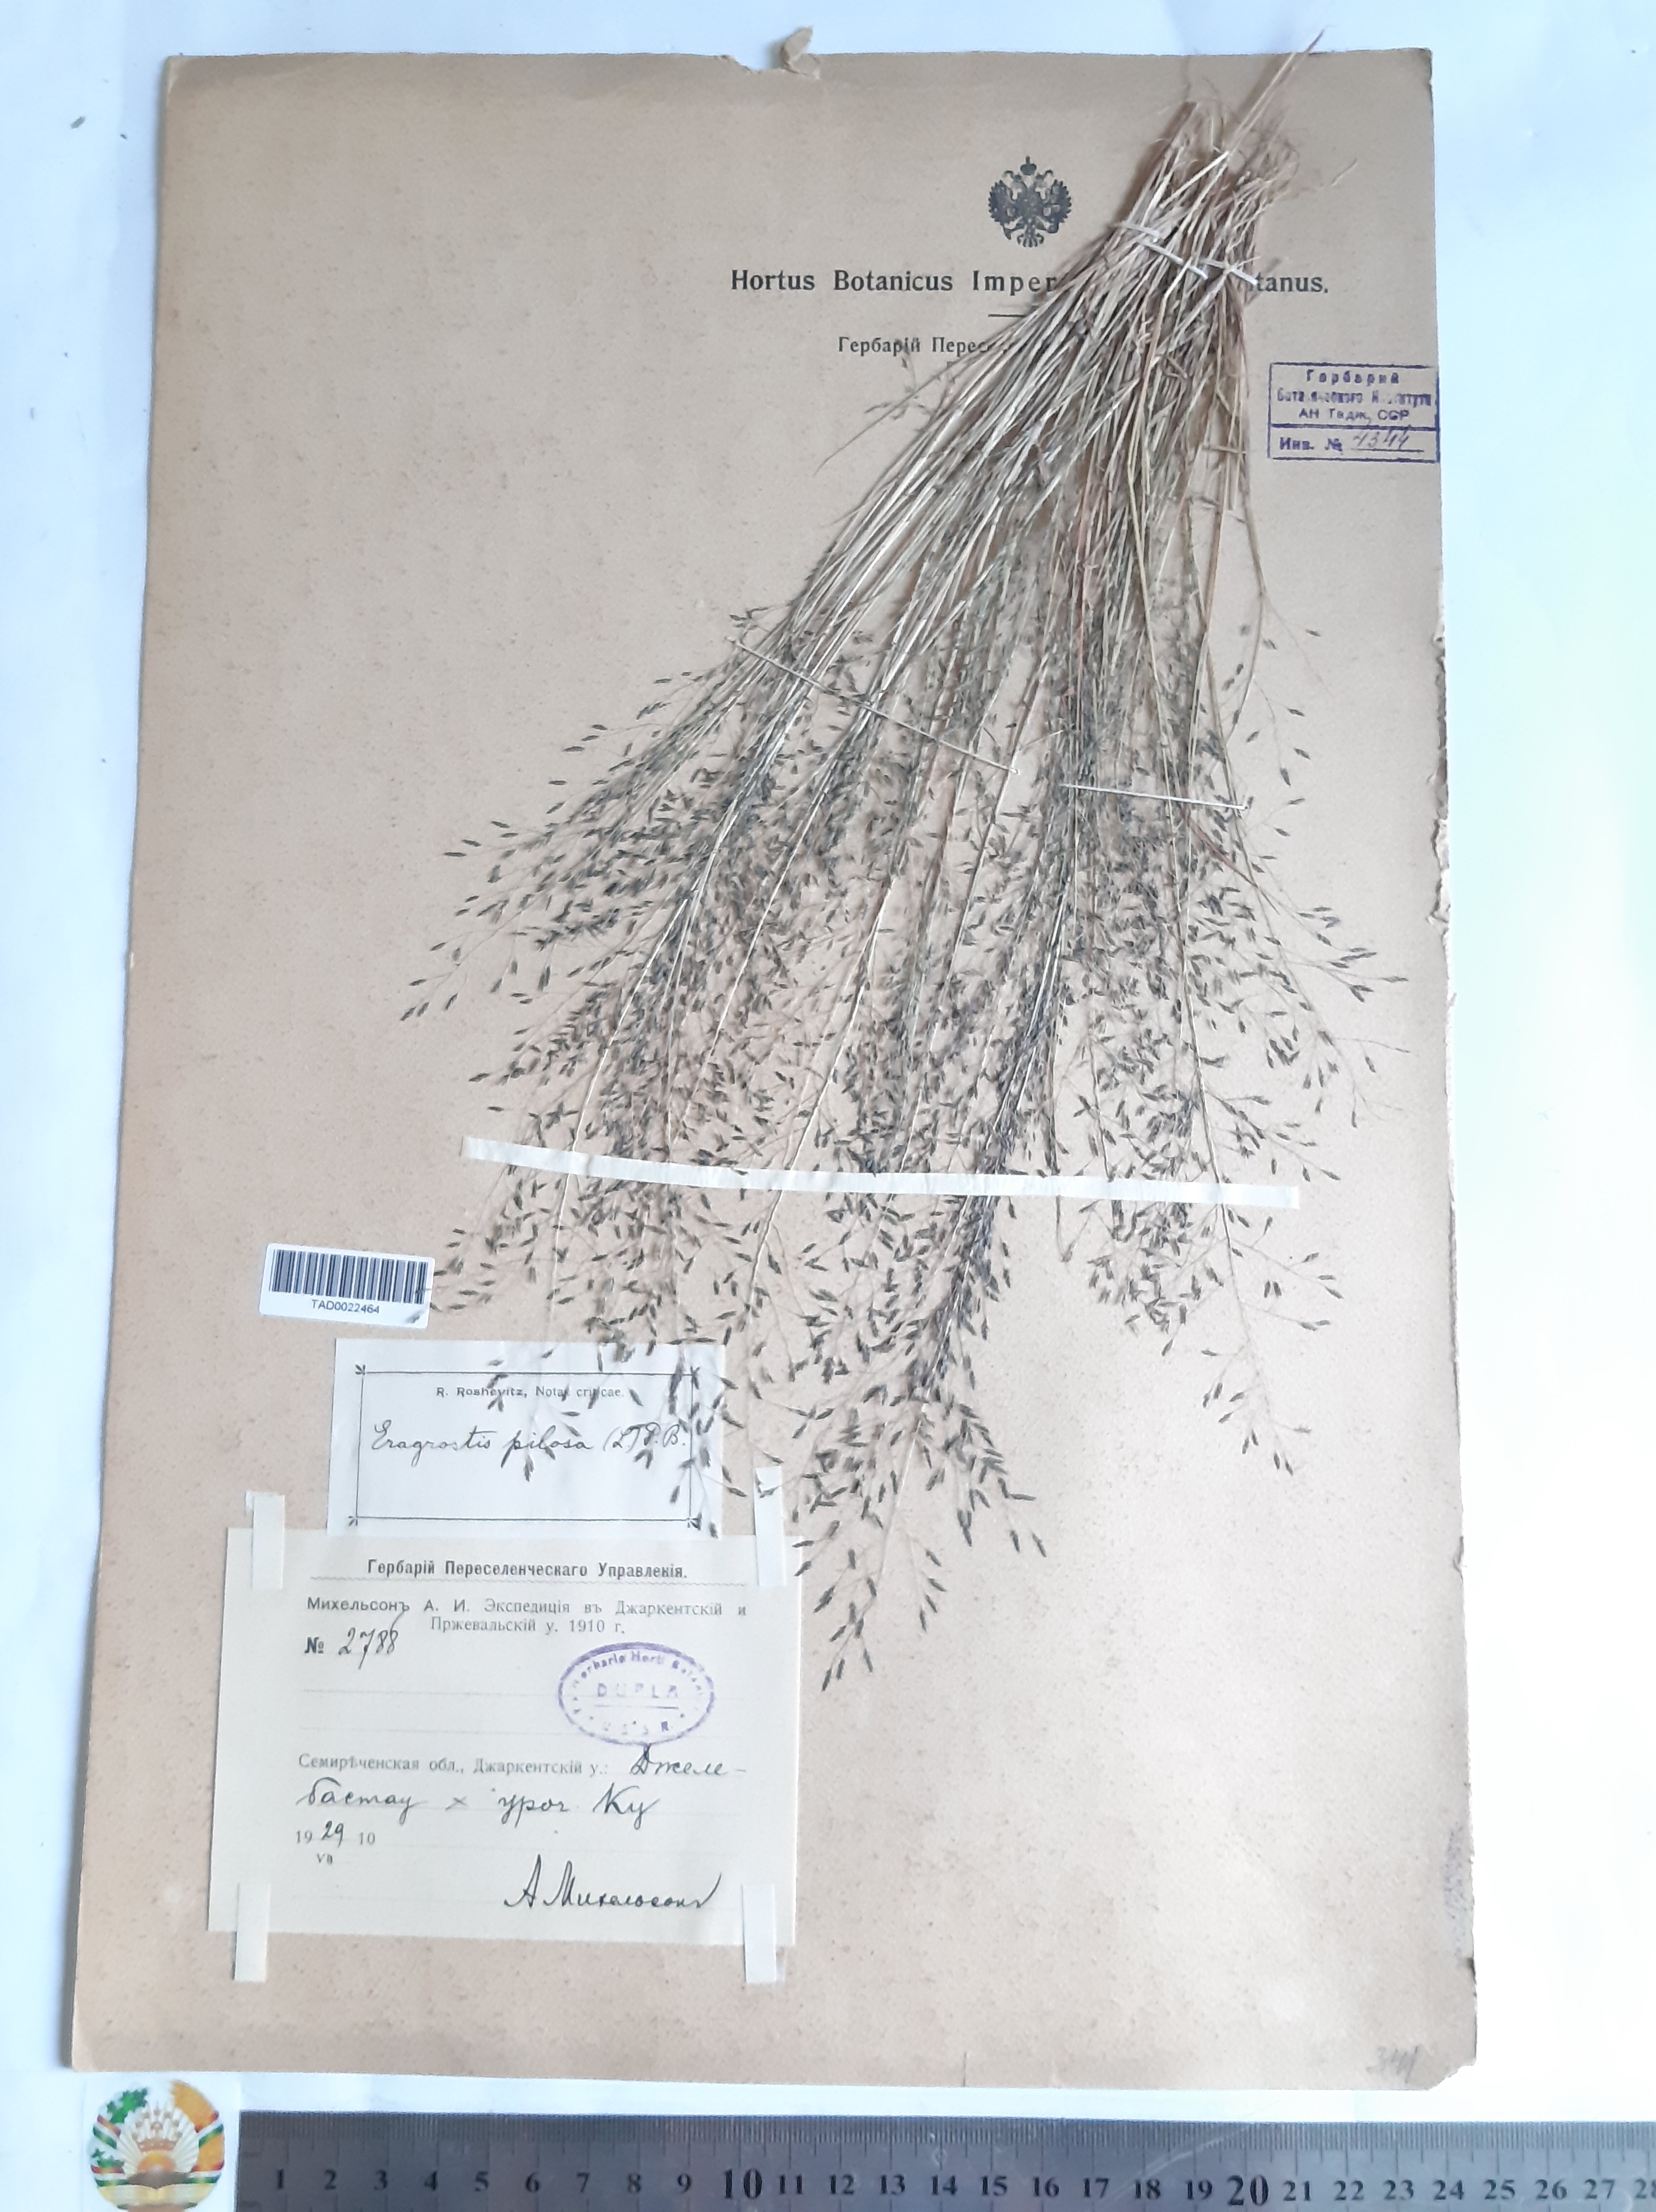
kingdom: Plantae
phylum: Tracheophyta
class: Liliopsida
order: Poales
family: Poaceae
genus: Eragrostis
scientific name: Eragrostis pilosa
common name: Indian lovegrass
